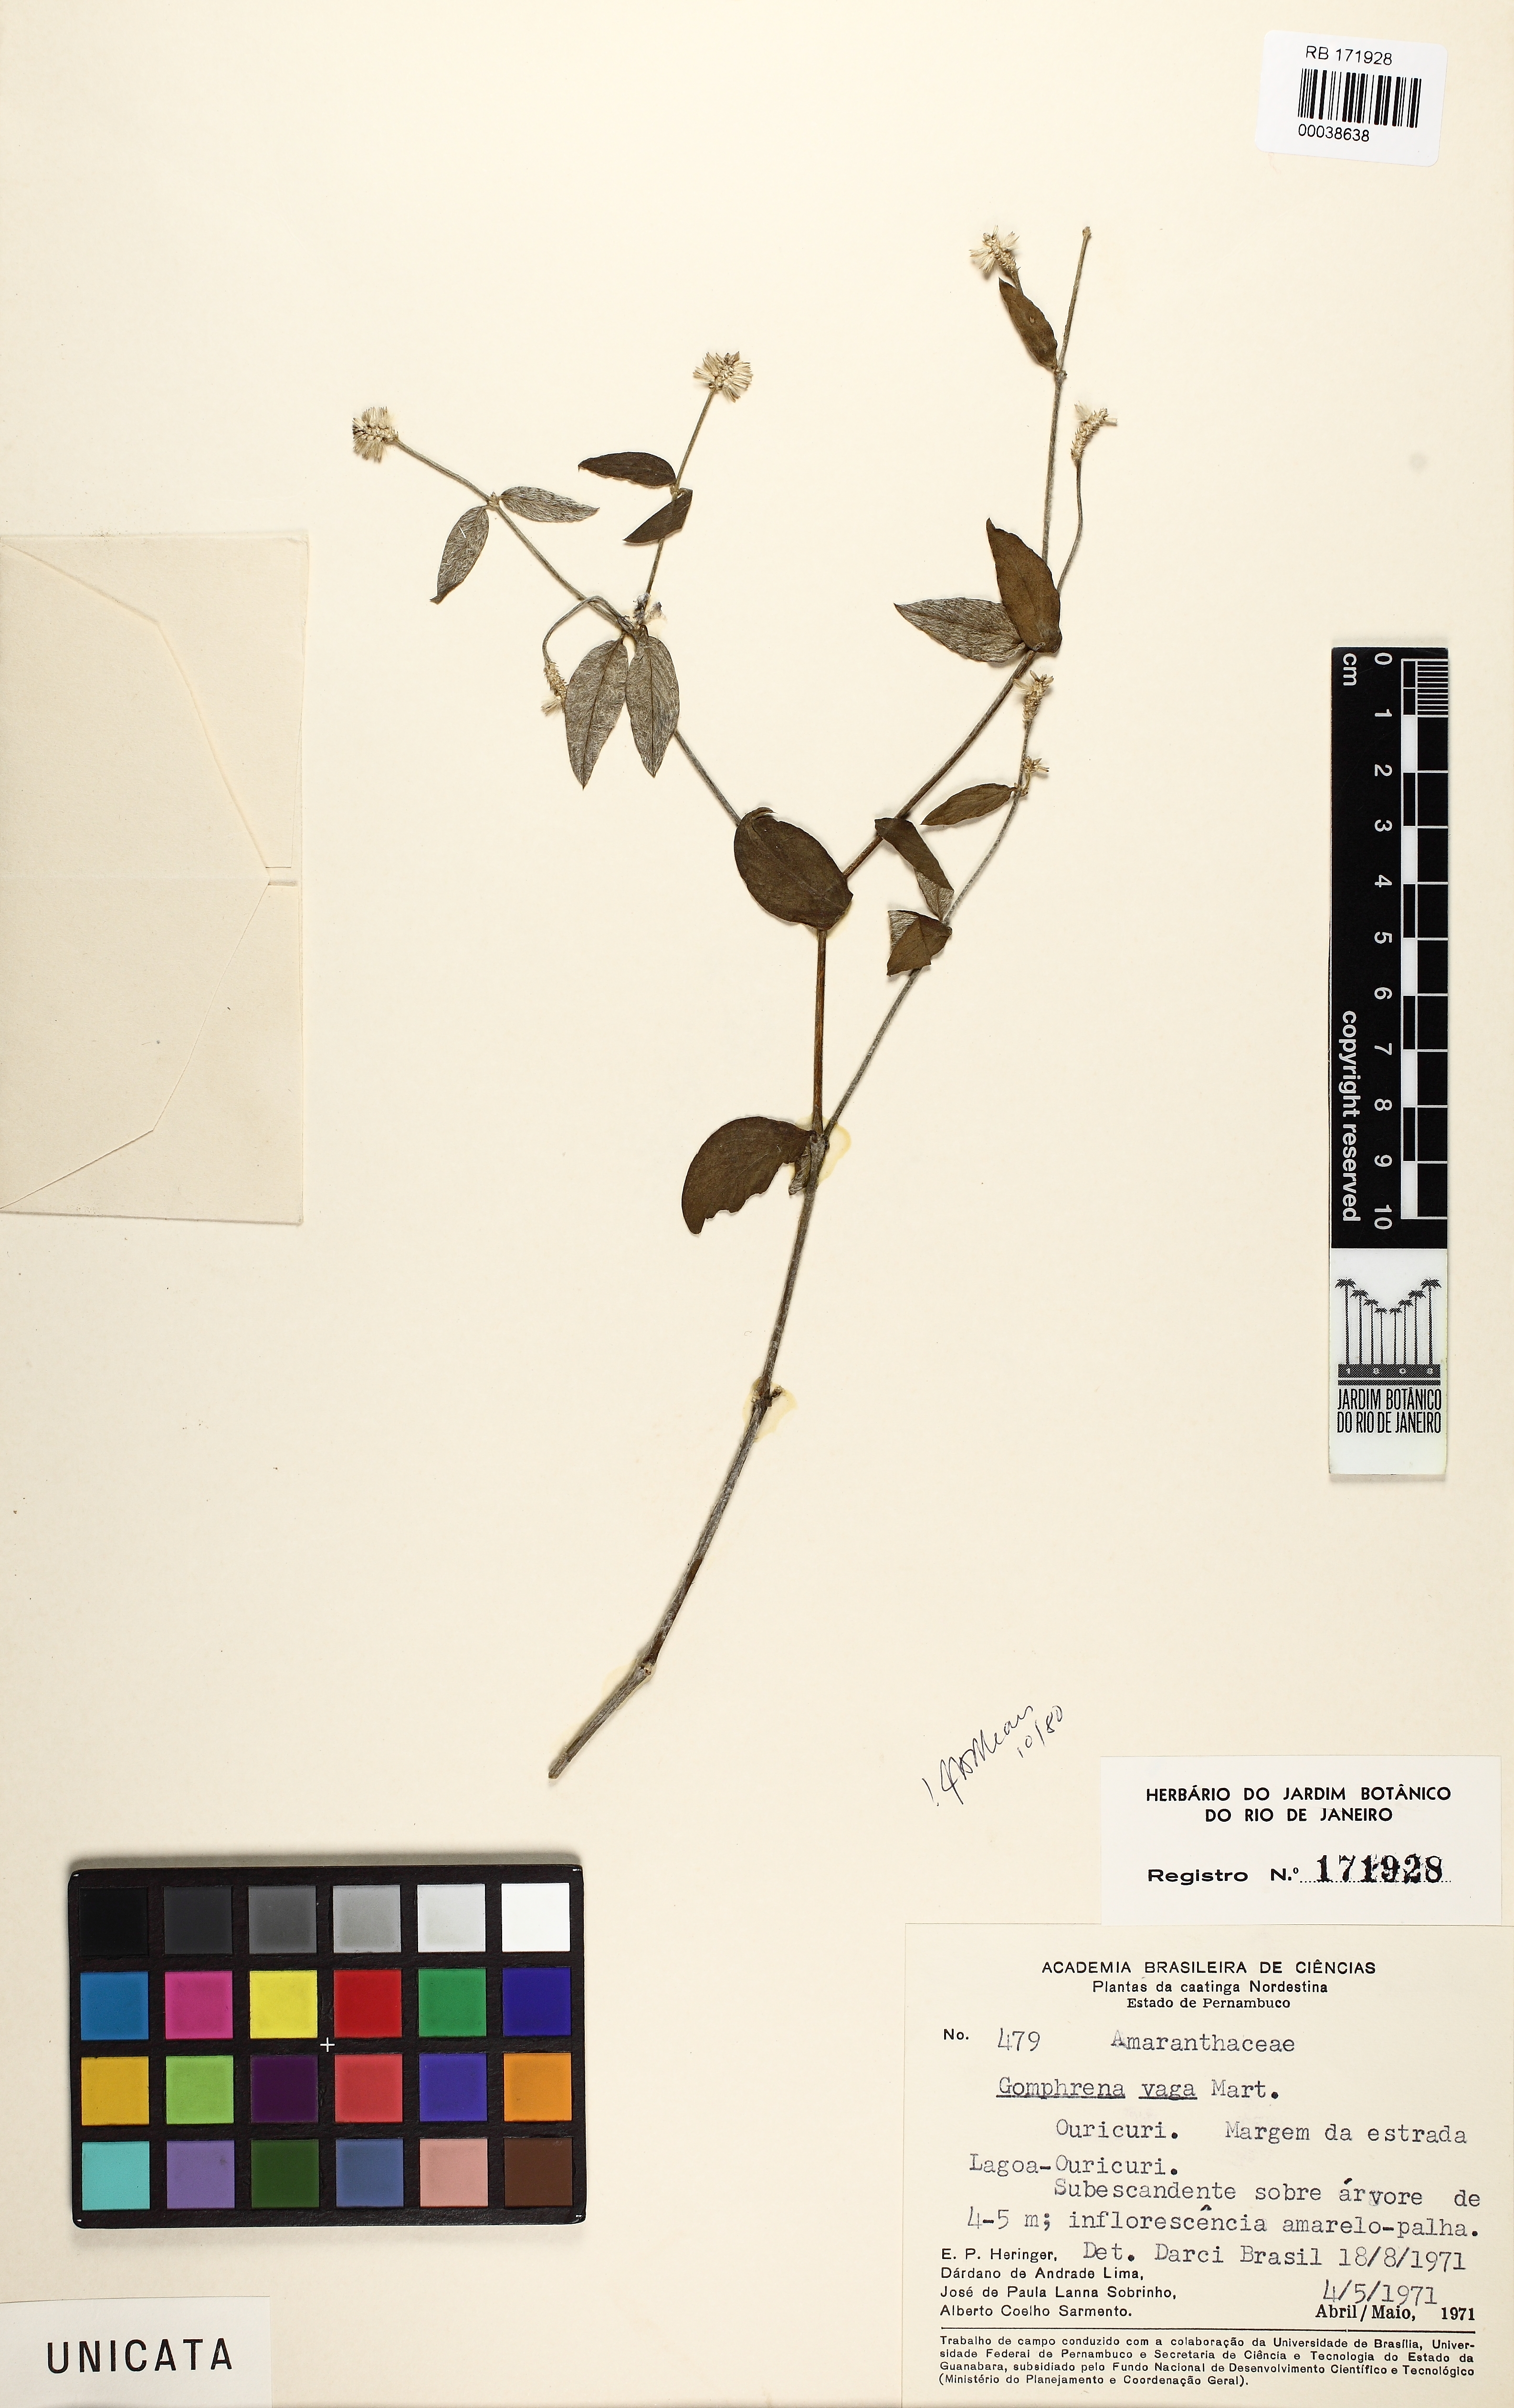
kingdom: Plantae
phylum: Tracheophyta
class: Magnoliopsida
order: Caryophyllales
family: Amaranthaceae
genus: Gomphrena
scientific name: Gomphrena vaga
